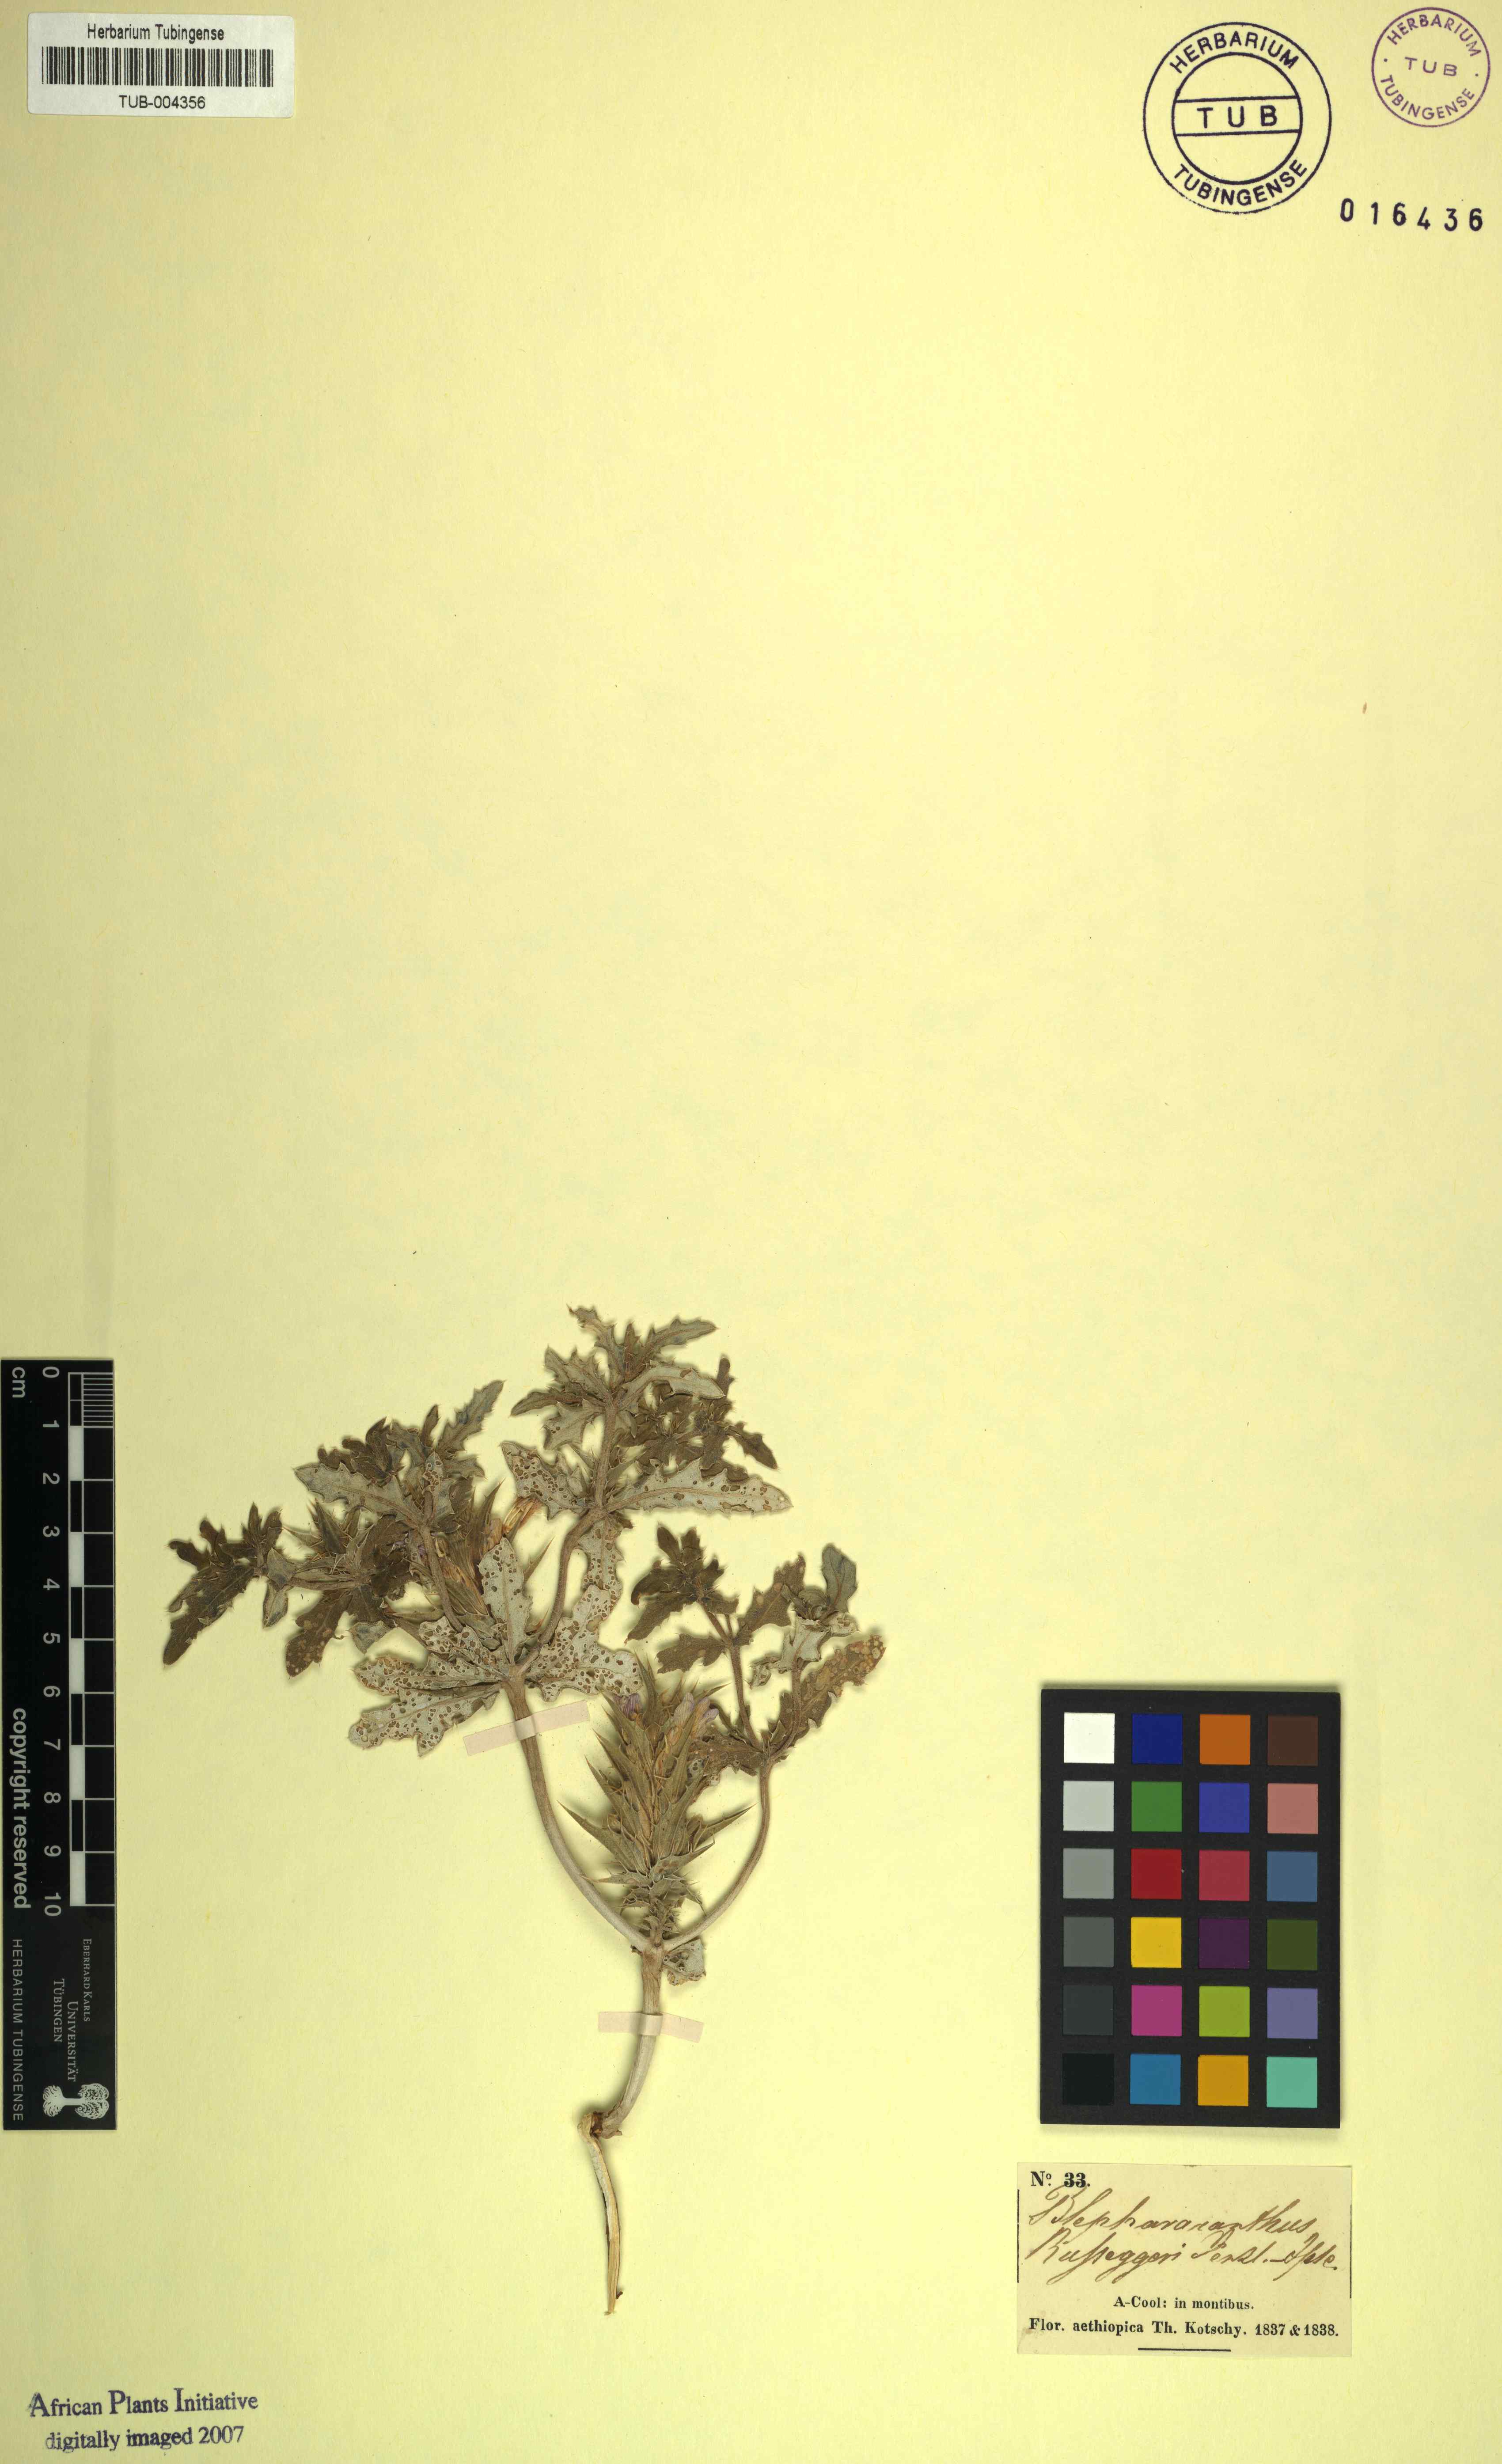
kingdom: Plantae
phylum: Tracheophyta
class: Magnoliopsida
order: Lamiales
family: Acanthaceae
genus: Blepharis
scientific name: Blepharis
